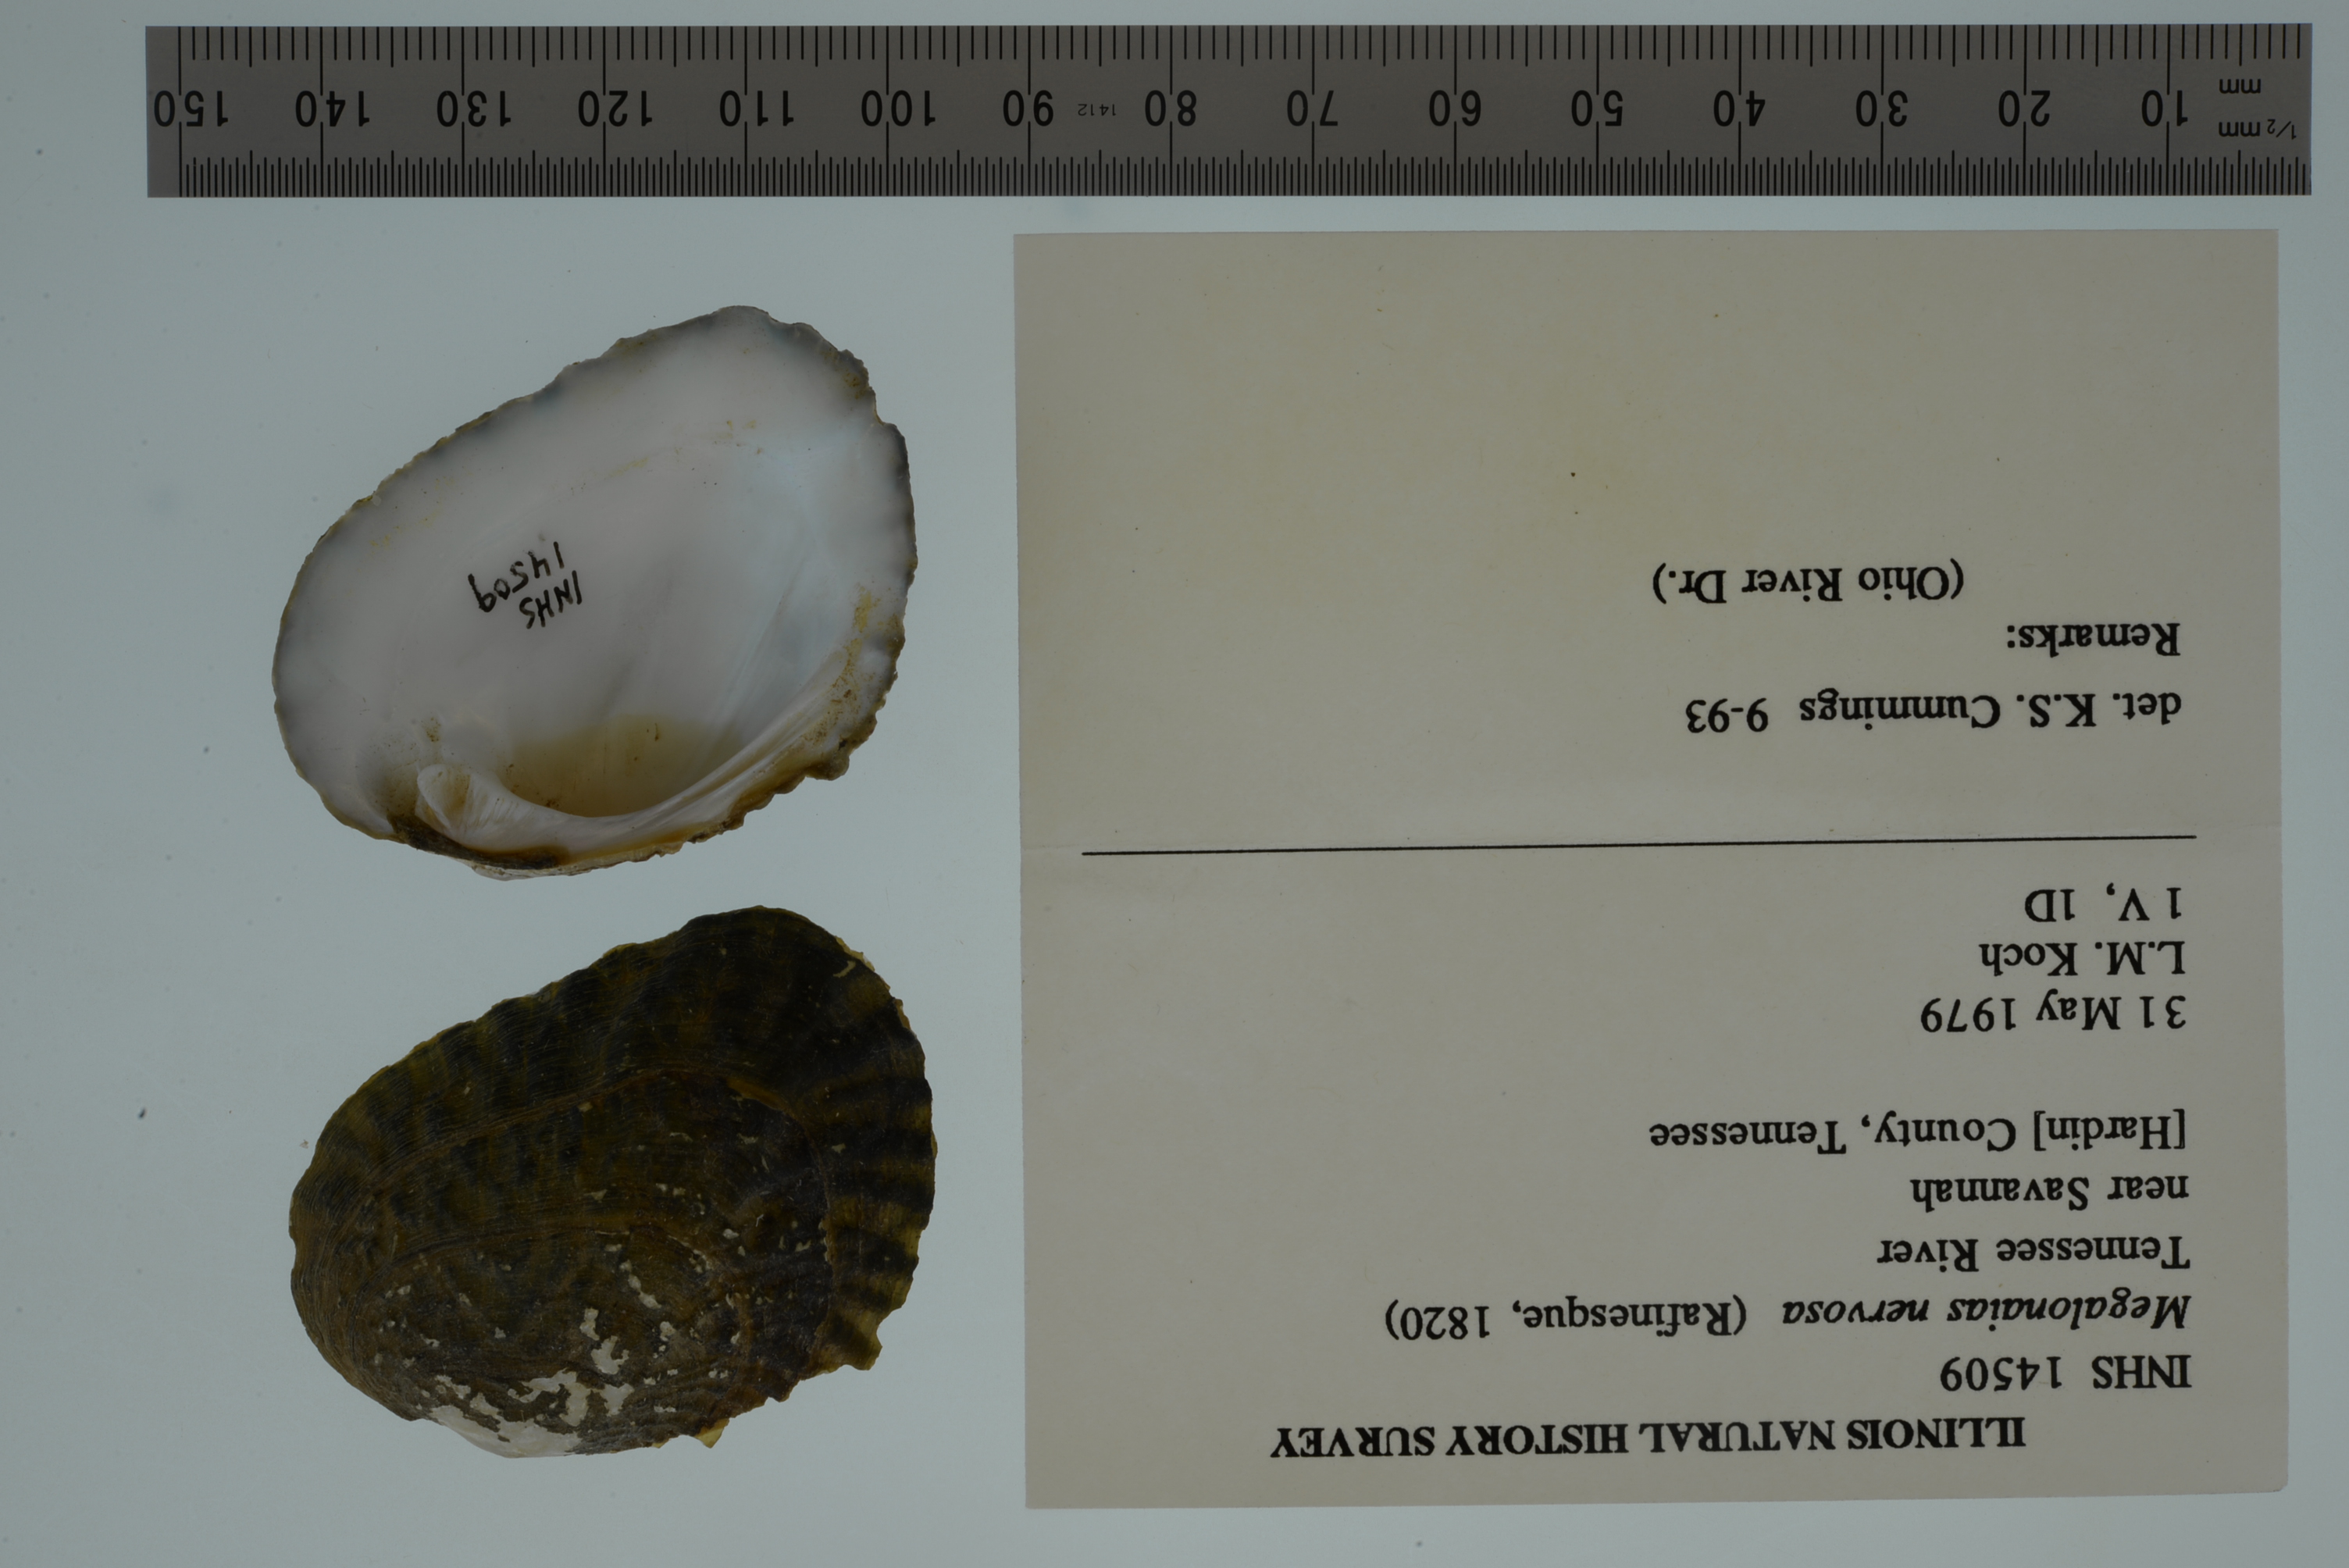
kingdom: Animalia
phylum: Mollusca
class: Bivalvia
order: Unionida
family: Unionidae
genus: Megalonaias
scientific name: Megalonaias nervosa
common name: Washboard
